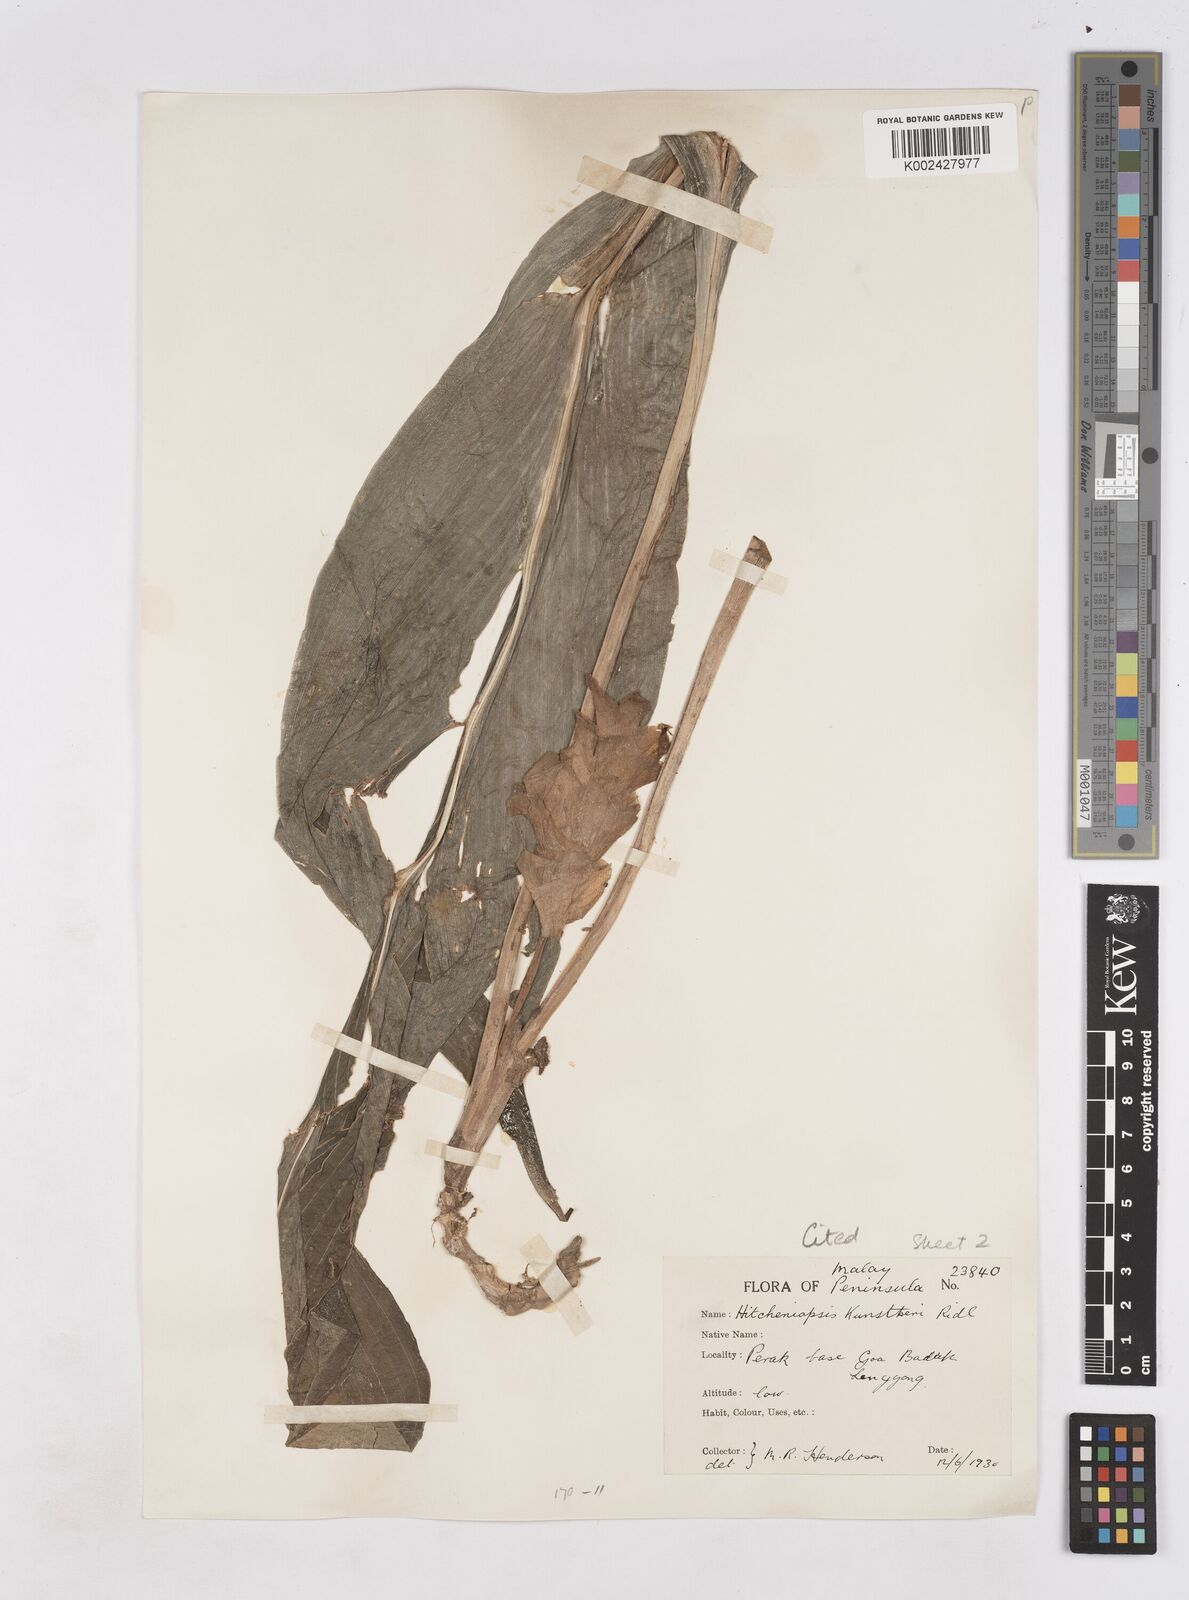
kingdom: Plantae
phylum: Tracheophyta
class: Liliopsida
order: Zingiberales
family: Zingiberaceae
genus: Scaphochlamys
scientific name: Scaphochlamys
